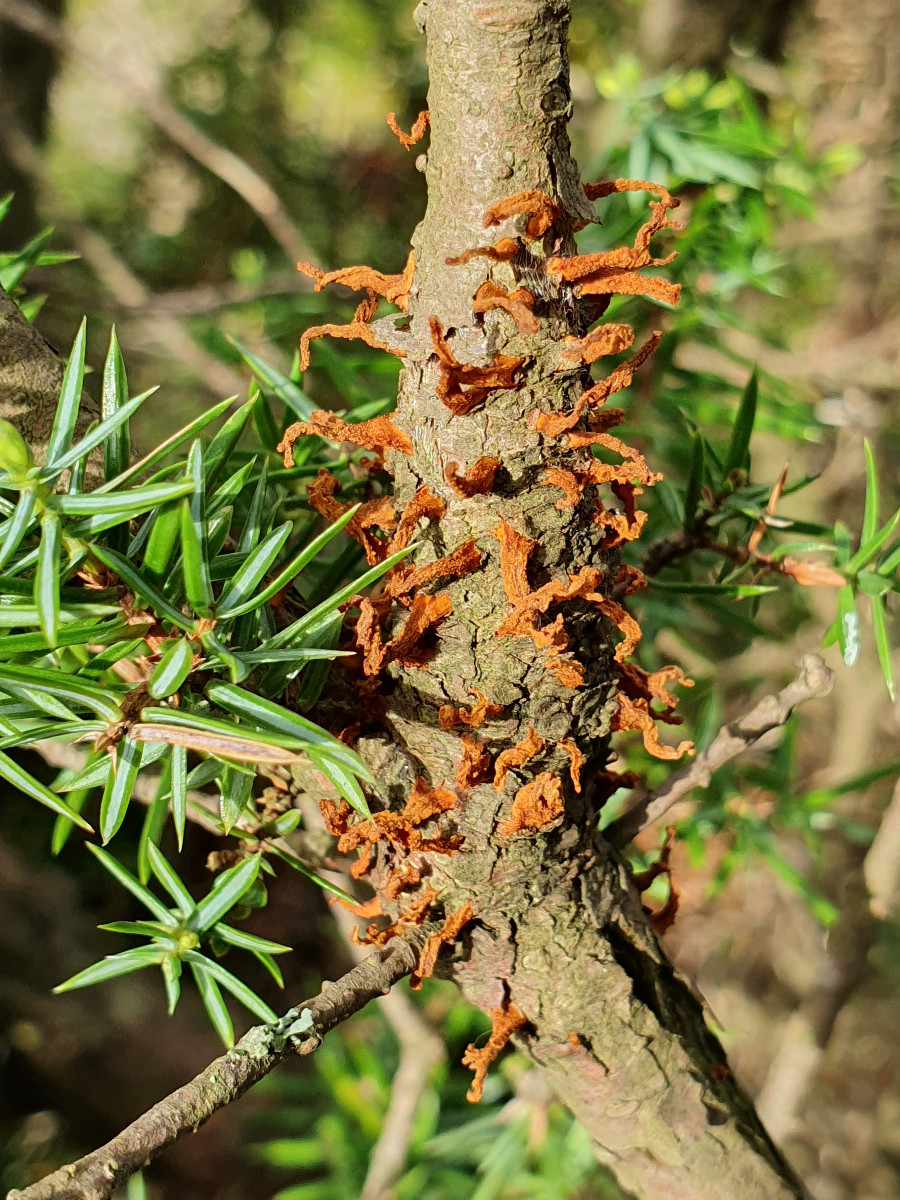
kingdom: Fungi
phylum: Basidiomycota
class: Pucciniomycetes
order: Pucciniales
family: Gymnosporangiaceae
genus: Gymnosporangium
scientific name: Gymnosporangium clavariiforme
